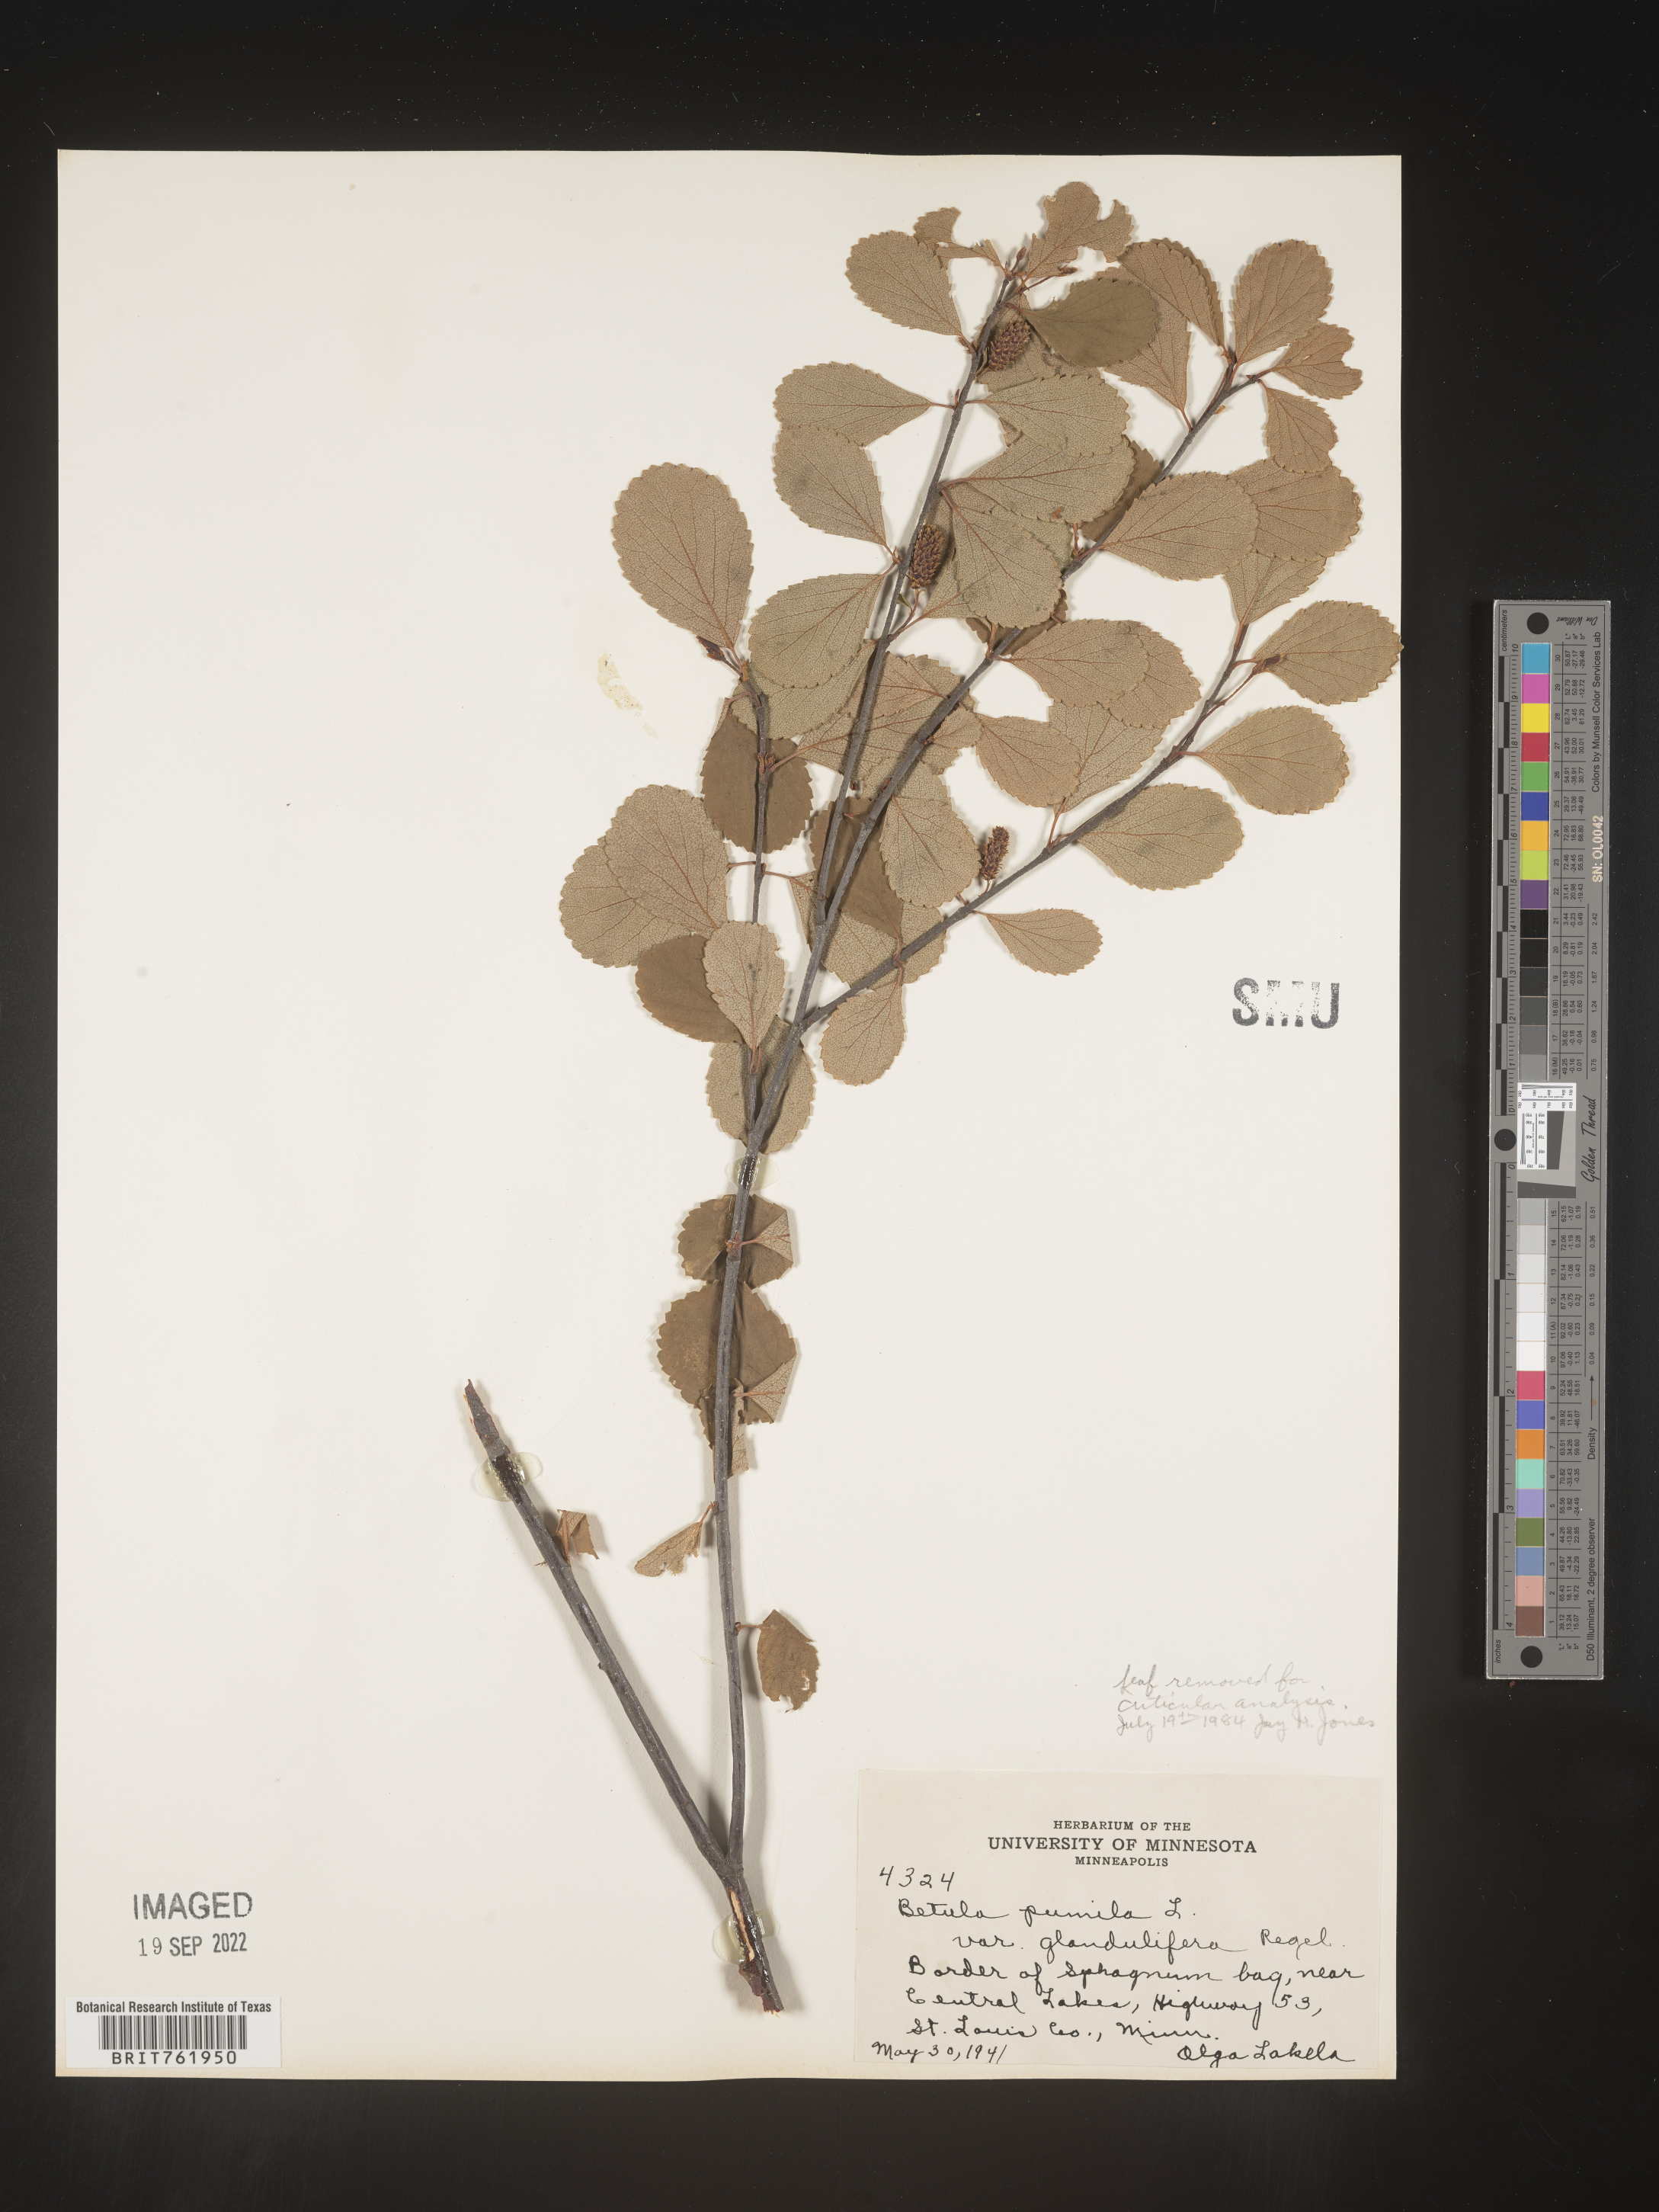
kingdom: Plantae
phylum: Tracheophyta
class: Magnoliopsida
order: Fagales
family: Betulaceae
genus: Betula
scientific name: Betula pumila
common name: Bog birch
